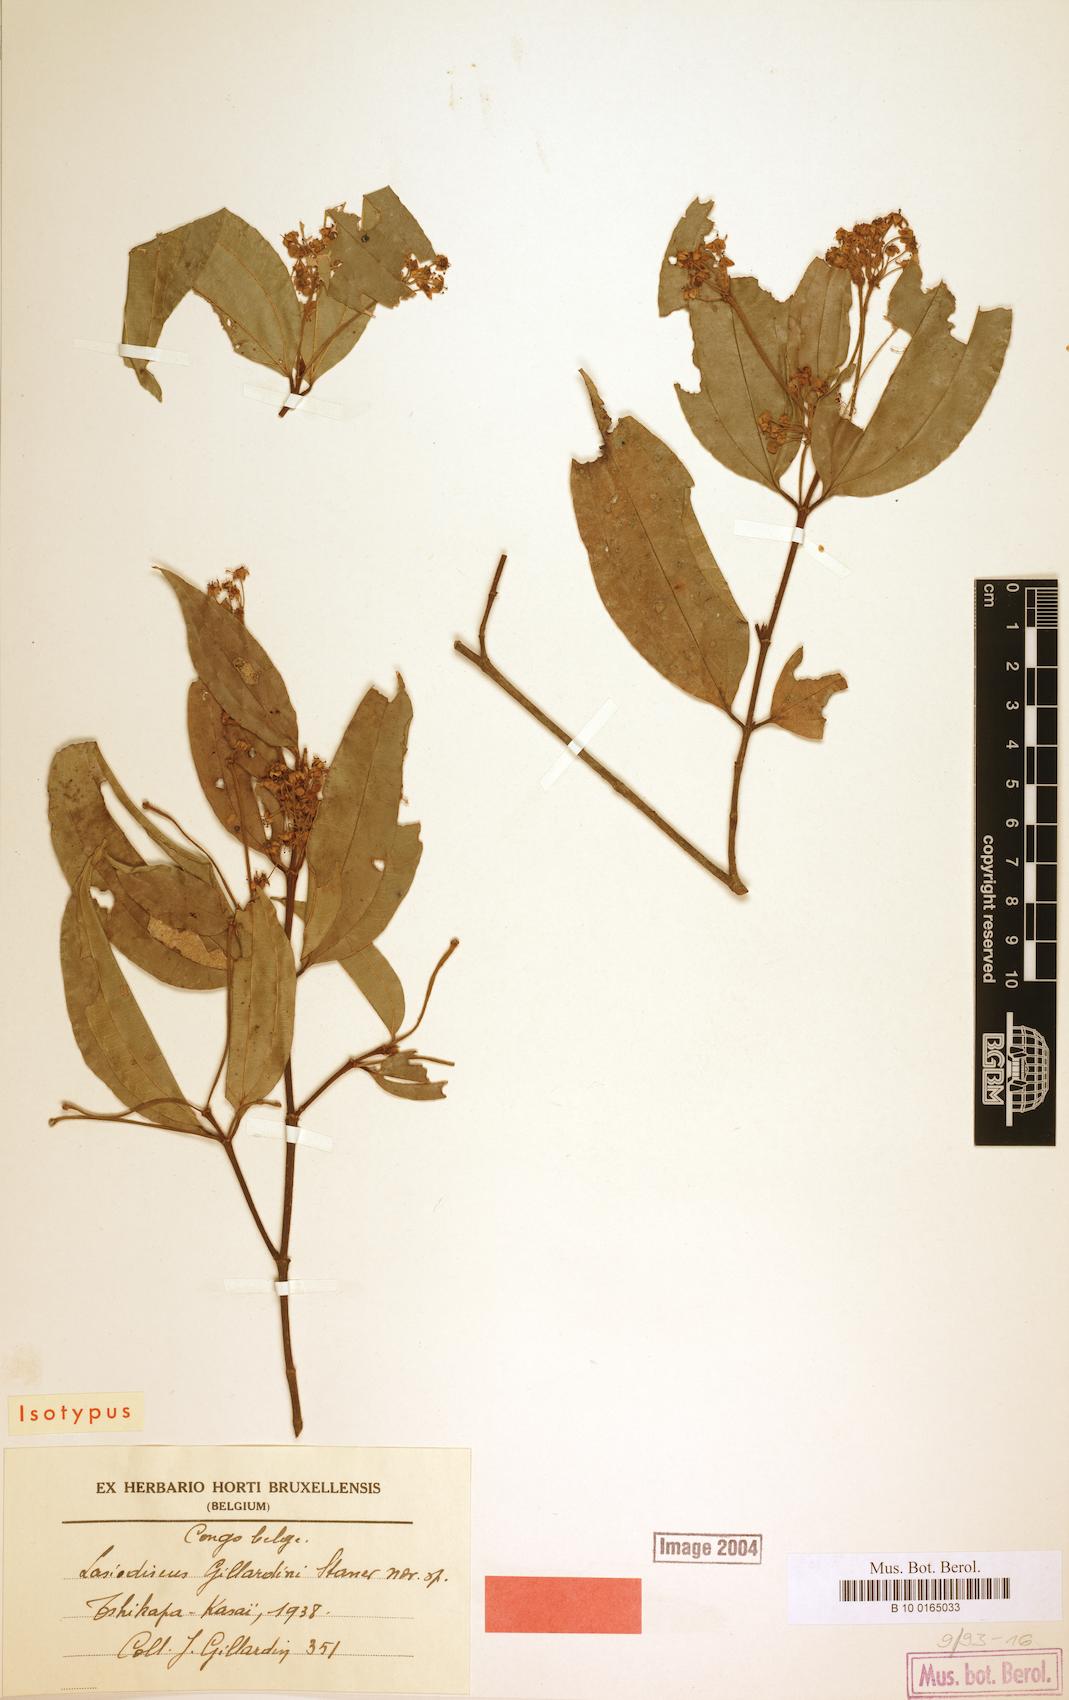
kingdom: Plantae
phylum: Tracheophyta
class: Magnoliopsida
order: Rosales
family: Rhamnaceae
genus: Lasiodiscus
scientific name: Lasiodiscus gillardinii
